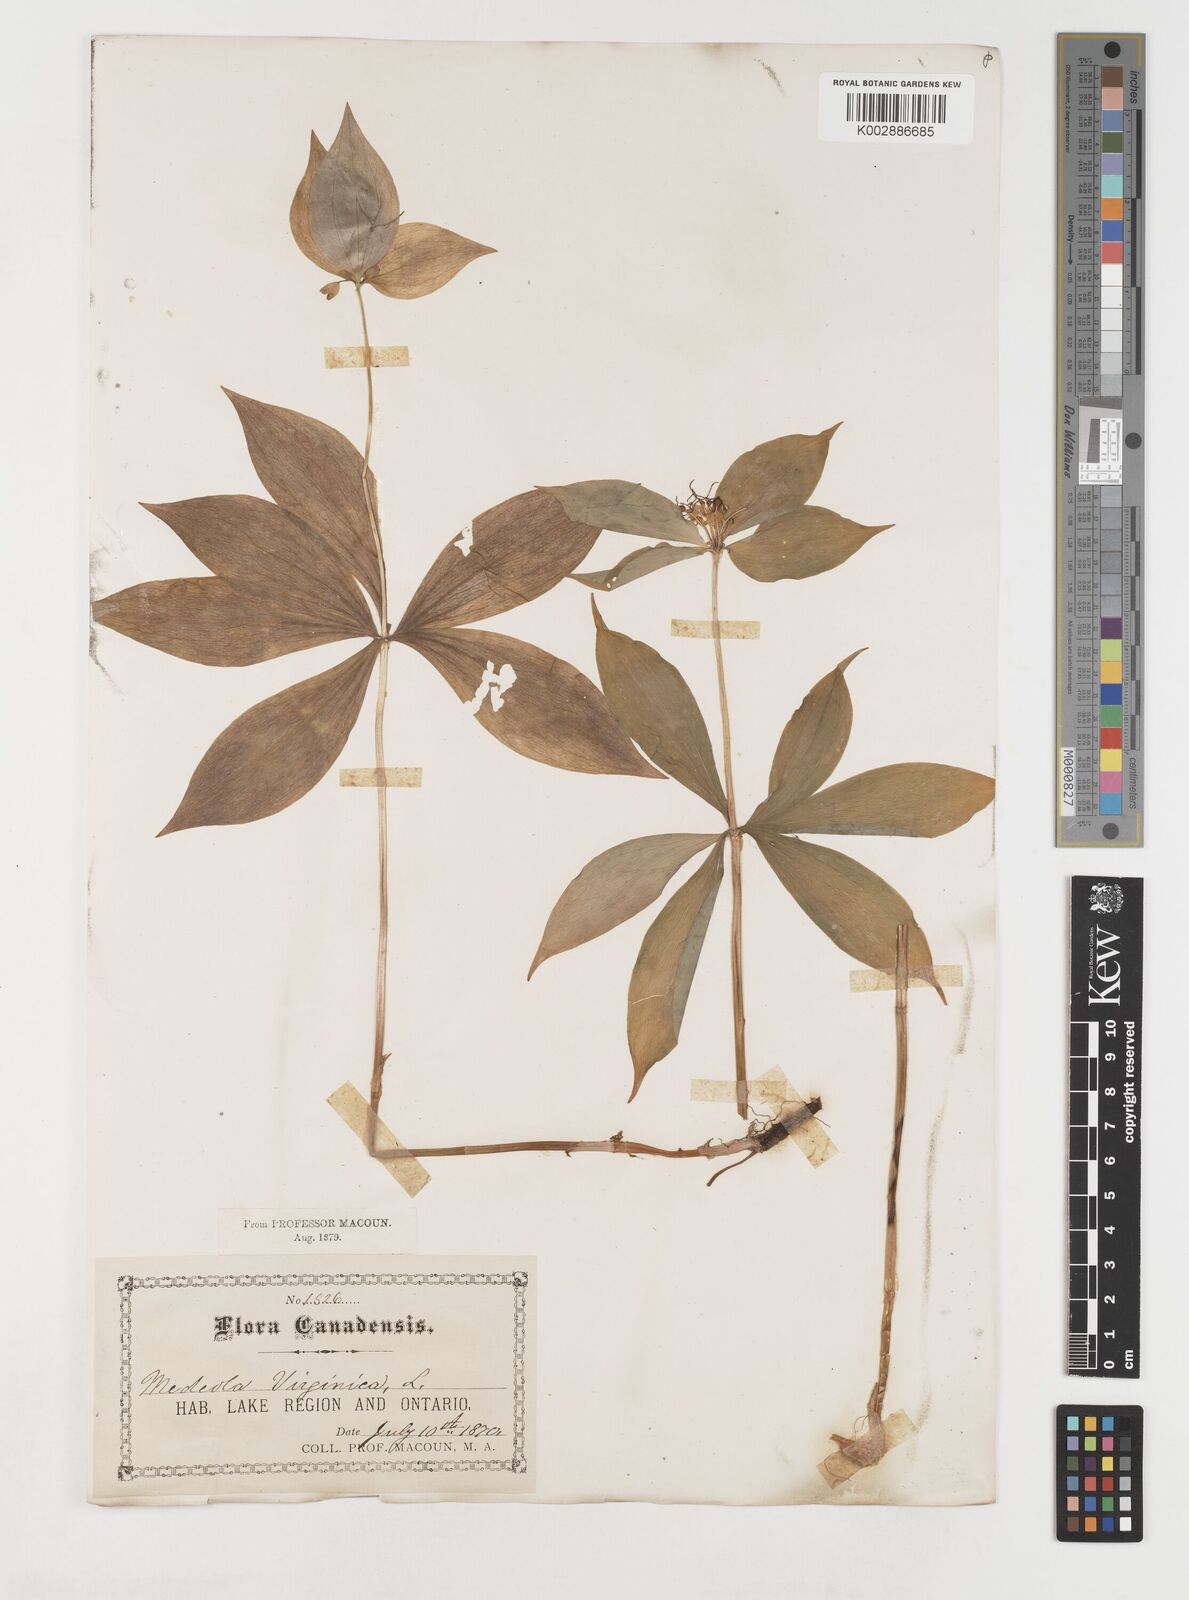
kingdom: Plantae
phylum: Tracheophyta
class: Liliopsida
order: Liliales
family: Liliaceae
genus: Medeola
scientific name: Medeola virginiana
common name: Indian cucumber-root
